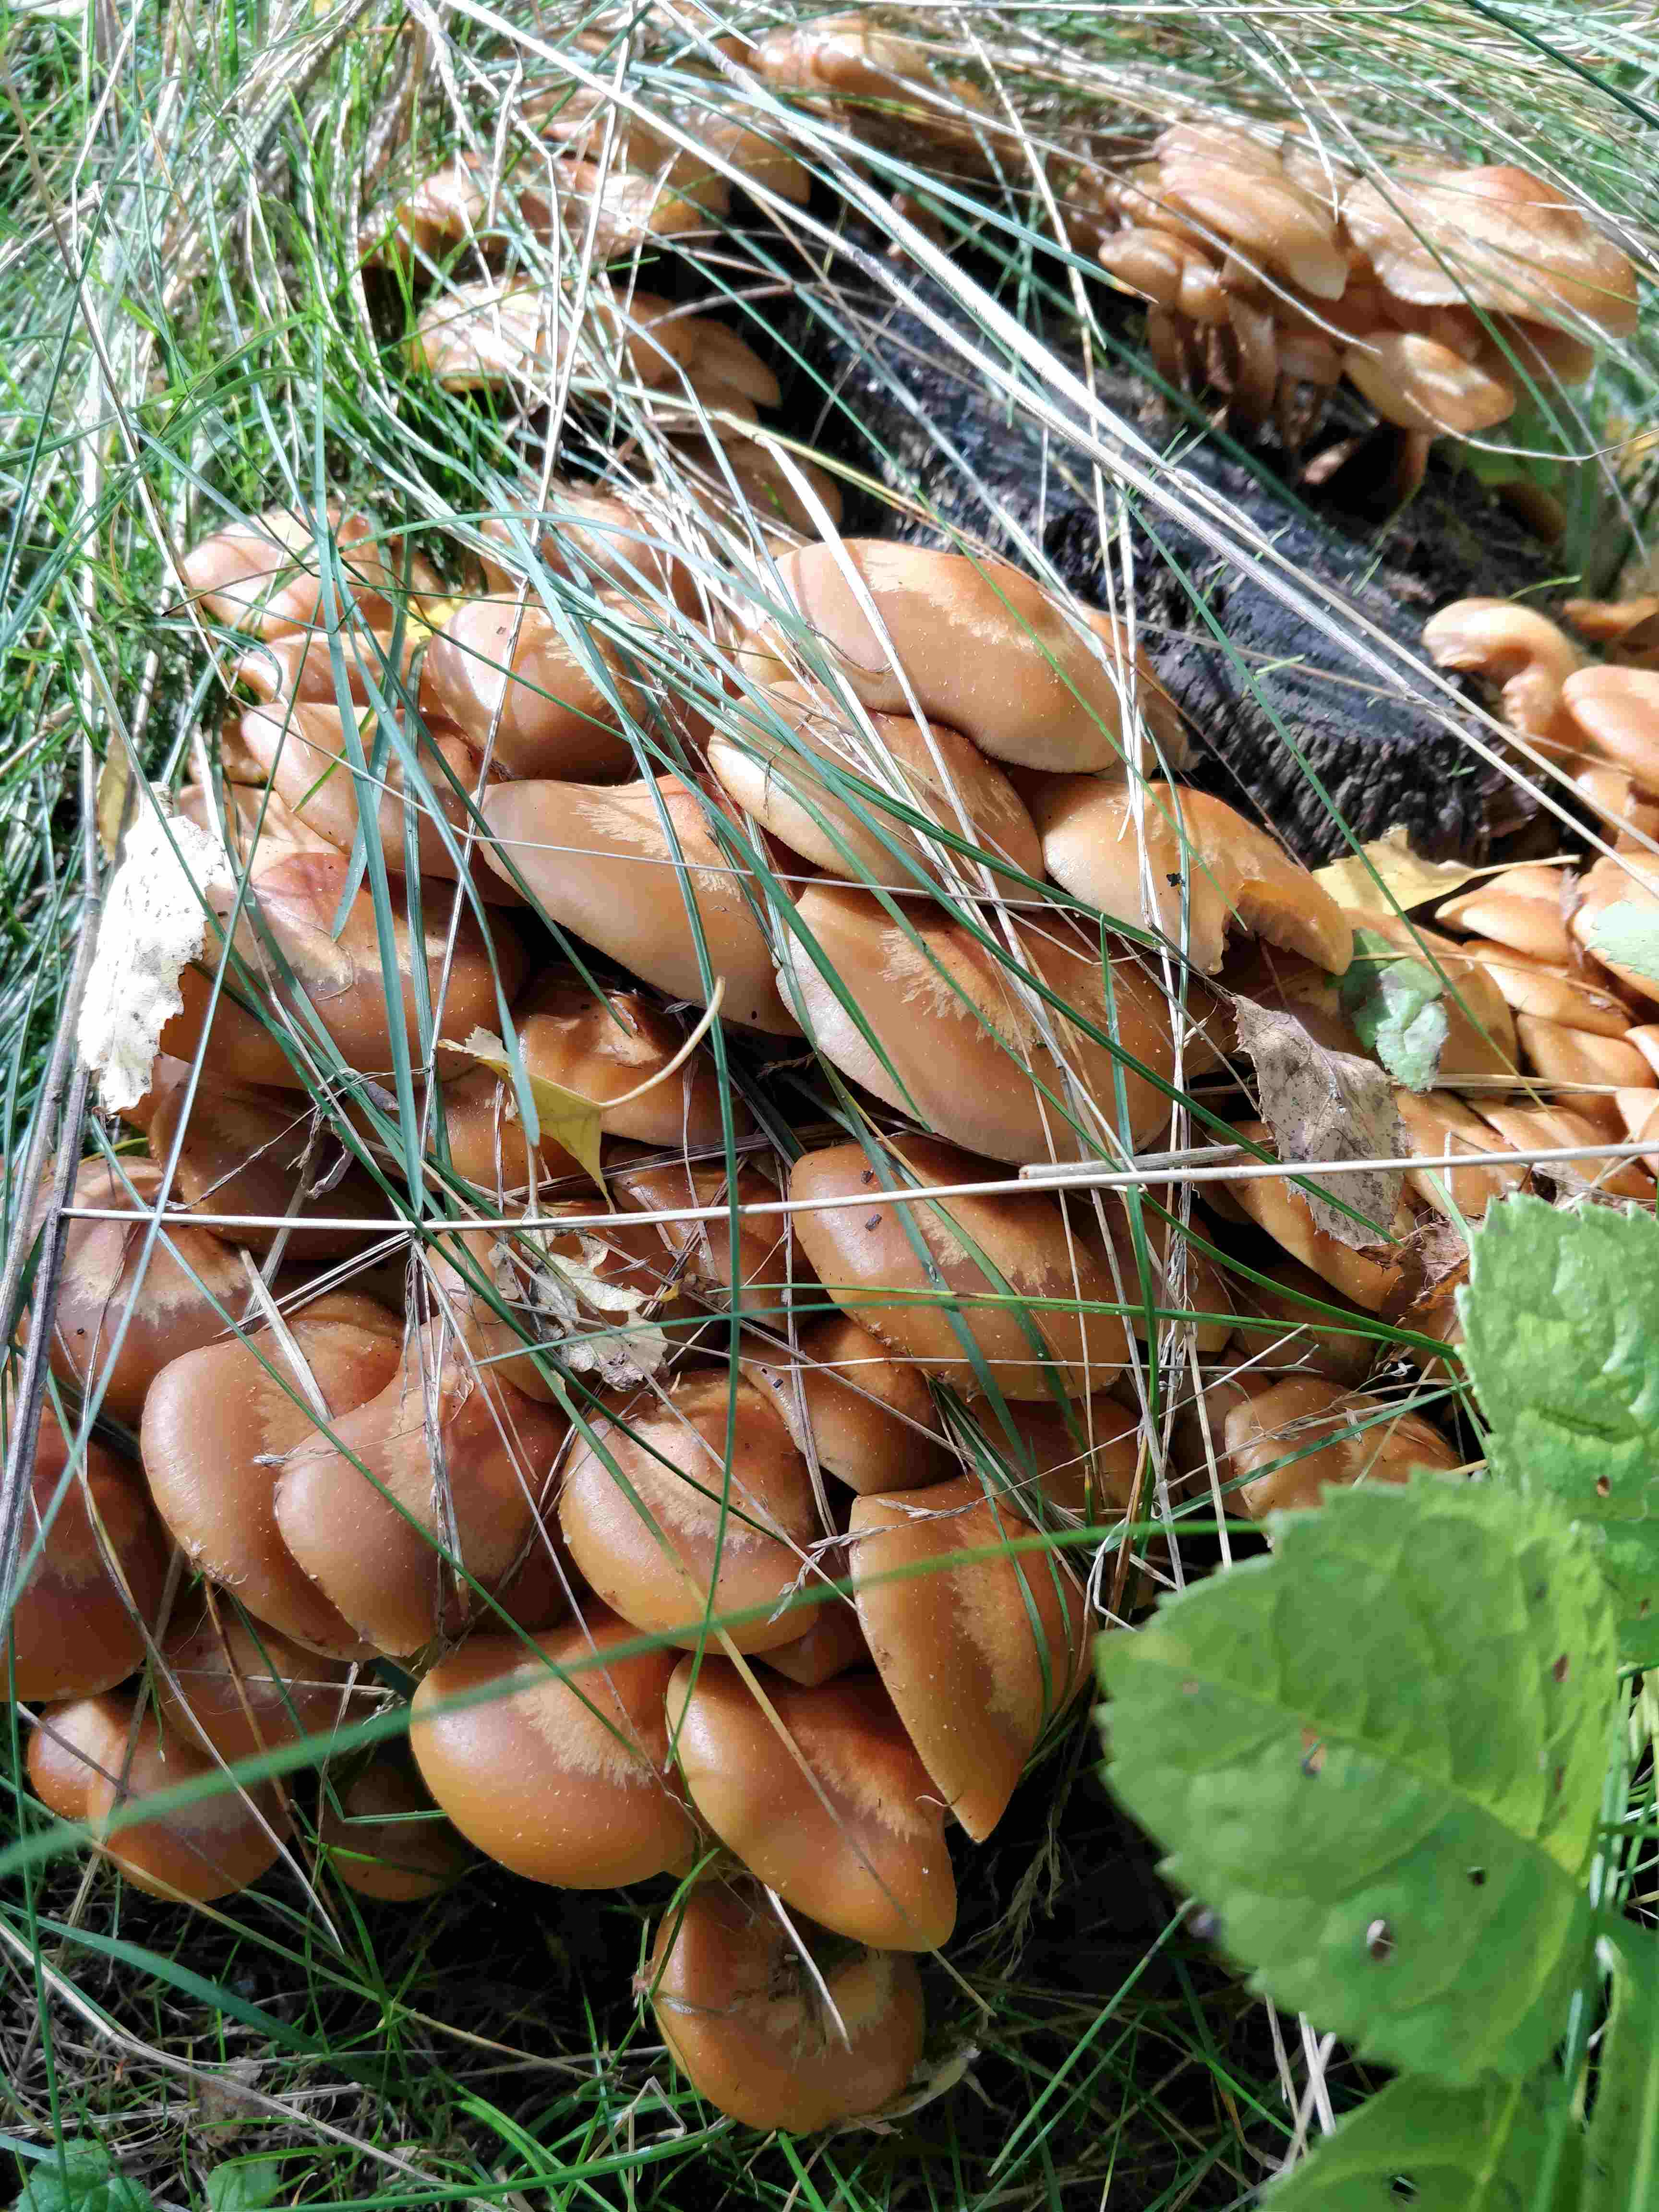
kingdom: Fungi
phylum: Basidiomycota
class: Agaricomycetes
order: Agaricales
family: Strophariaceae
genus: Kuehneromyces
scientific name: Kuehneromyces mutabilis
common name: foranderlig skælhat
